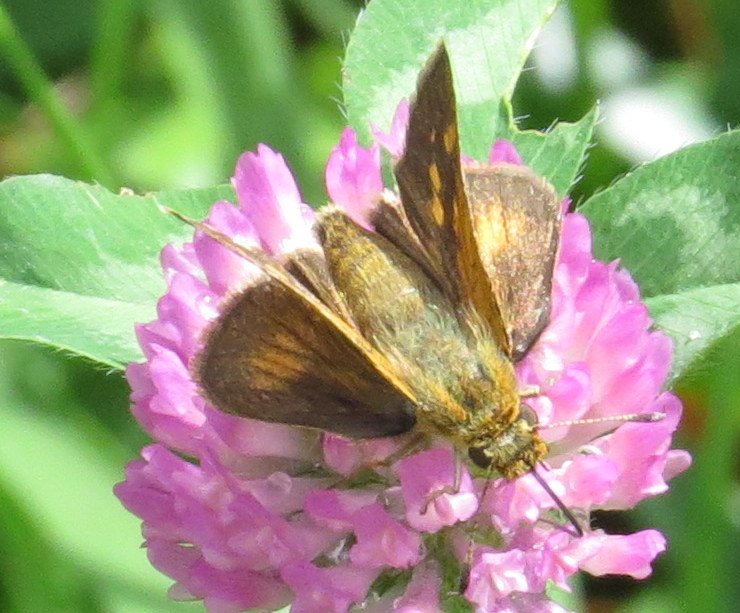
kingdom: Animalia
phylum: Arthropoda
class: Insecta
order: Lepidoptera
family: Hesperiidae
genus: Polites
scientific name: Polites coras
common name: Peck's Skipper
